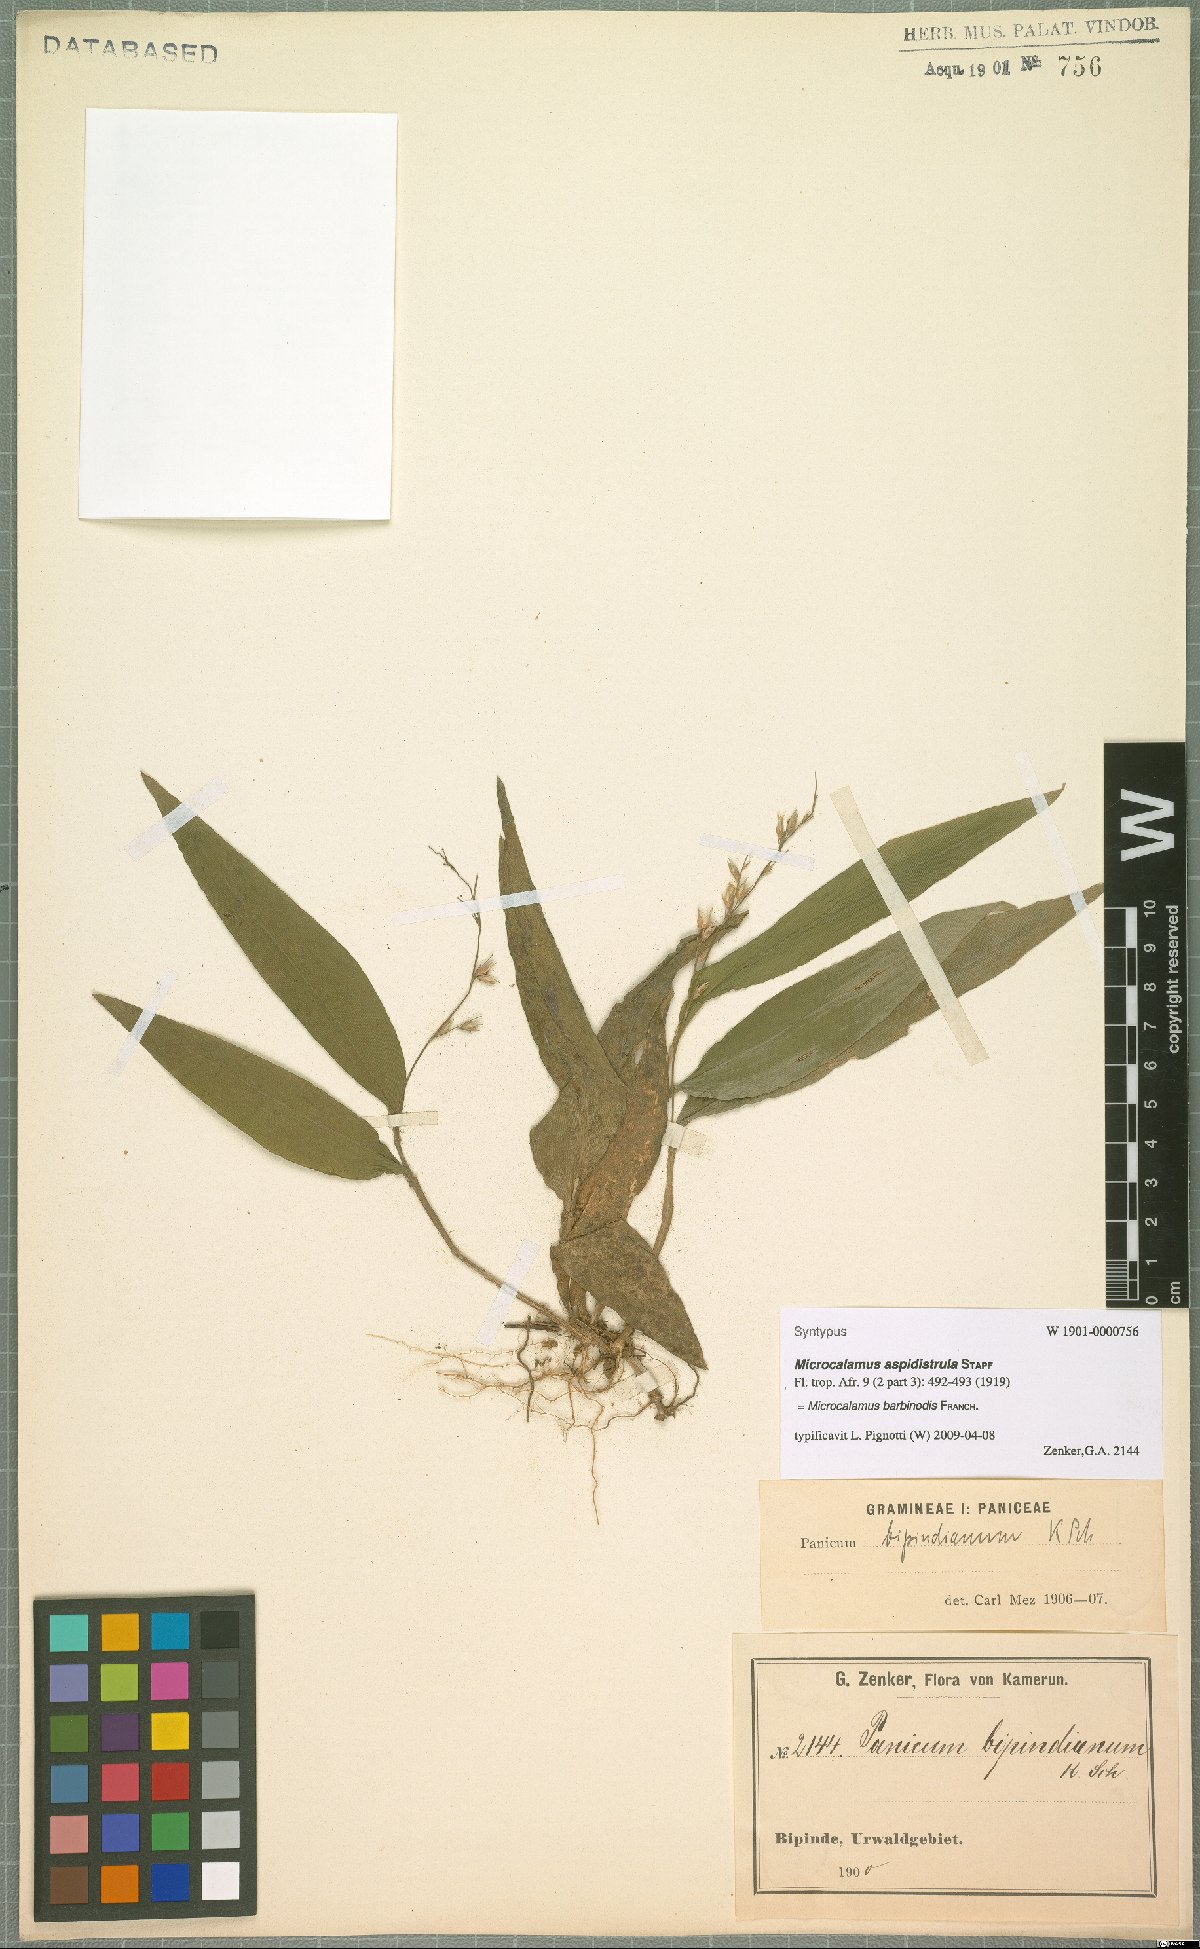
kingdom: Plantae
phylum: Tracheophyta
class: Liliopsida
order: Poales
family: Poaceae
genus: Microcalamus
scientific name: Microcalamus barbinodis
